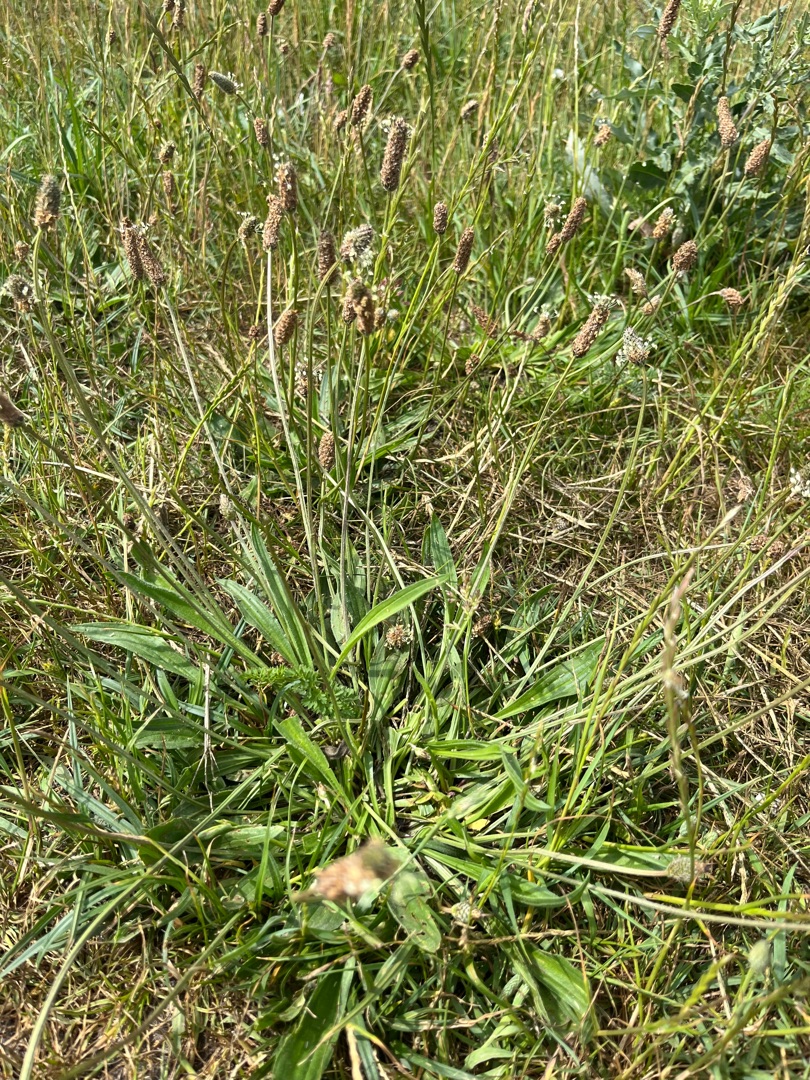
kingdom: Plantae
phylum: Tracheophyta
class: Magnoliopsida
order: Lamiales
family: Plantaginaceae
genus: Plantago
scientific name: Plantago lanceolata
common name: Lancet-vejbred
